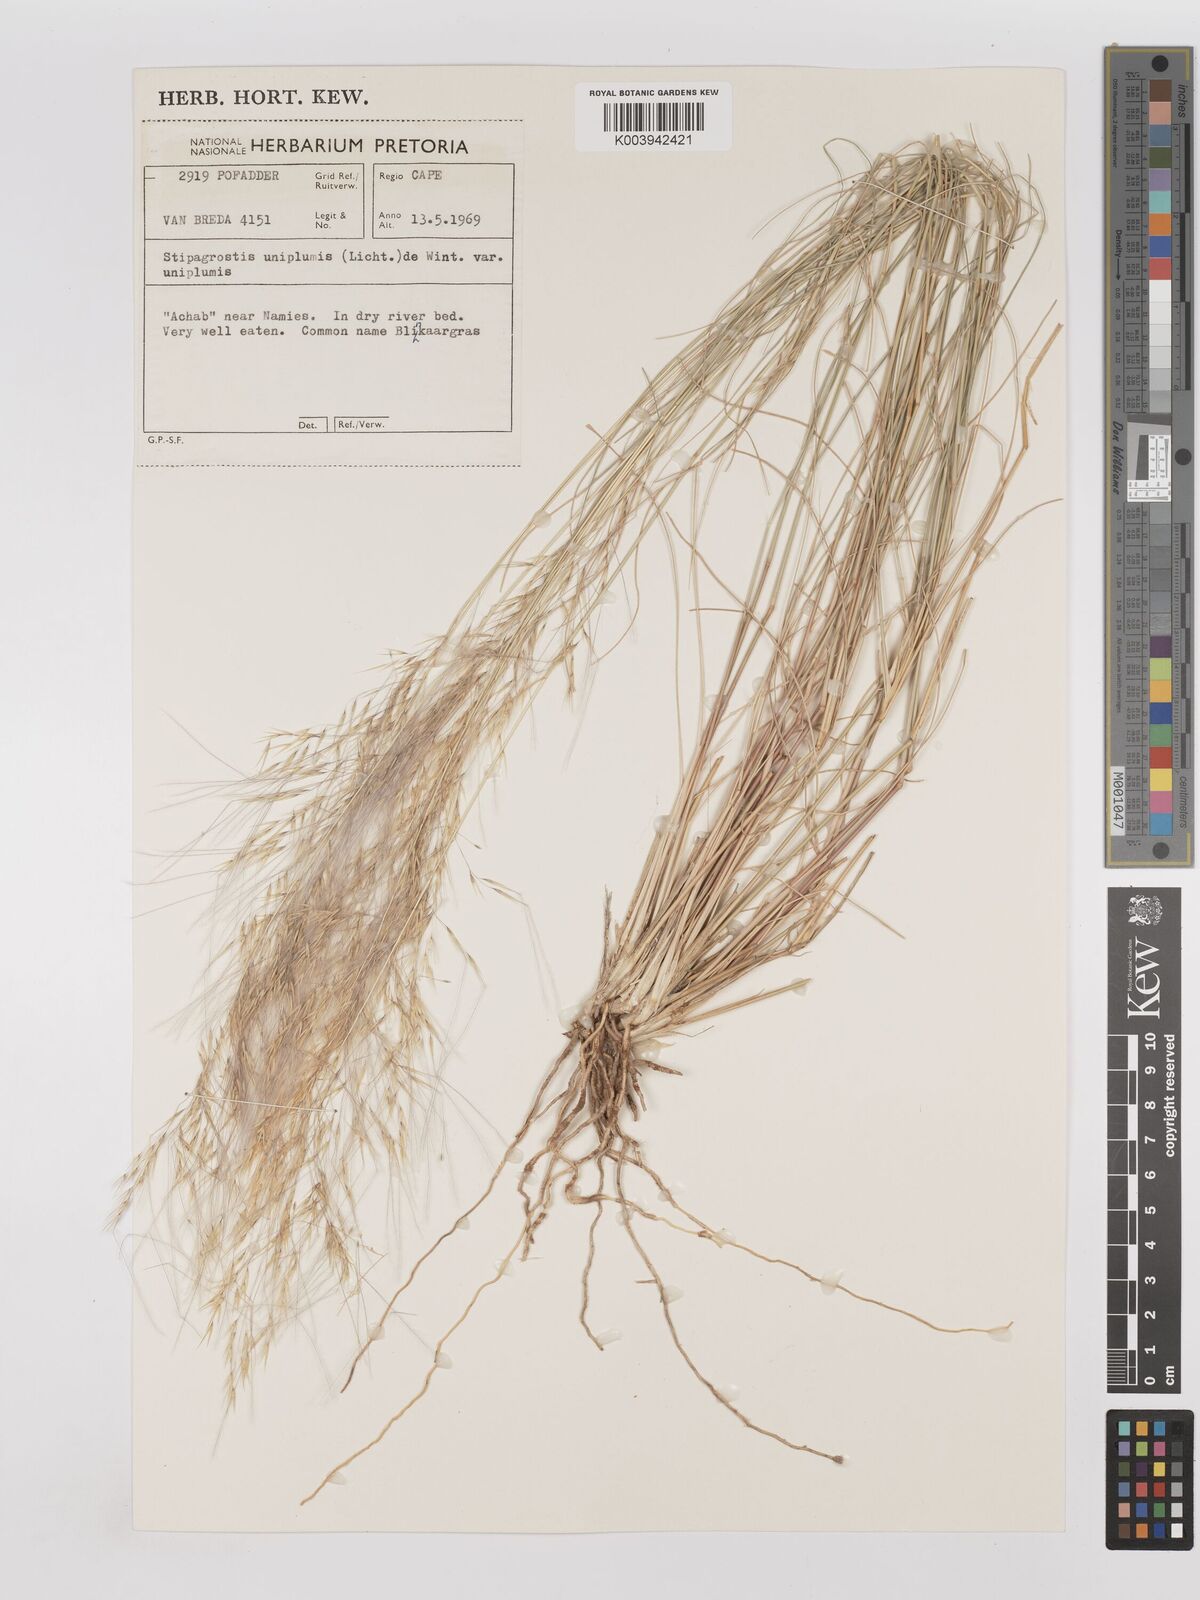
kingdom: Plantae
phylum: Tracheophyta
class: Liliopsida
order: Poales
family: Poaceae
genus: Stipagrostis
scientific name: Stipagrostis uniplumis
